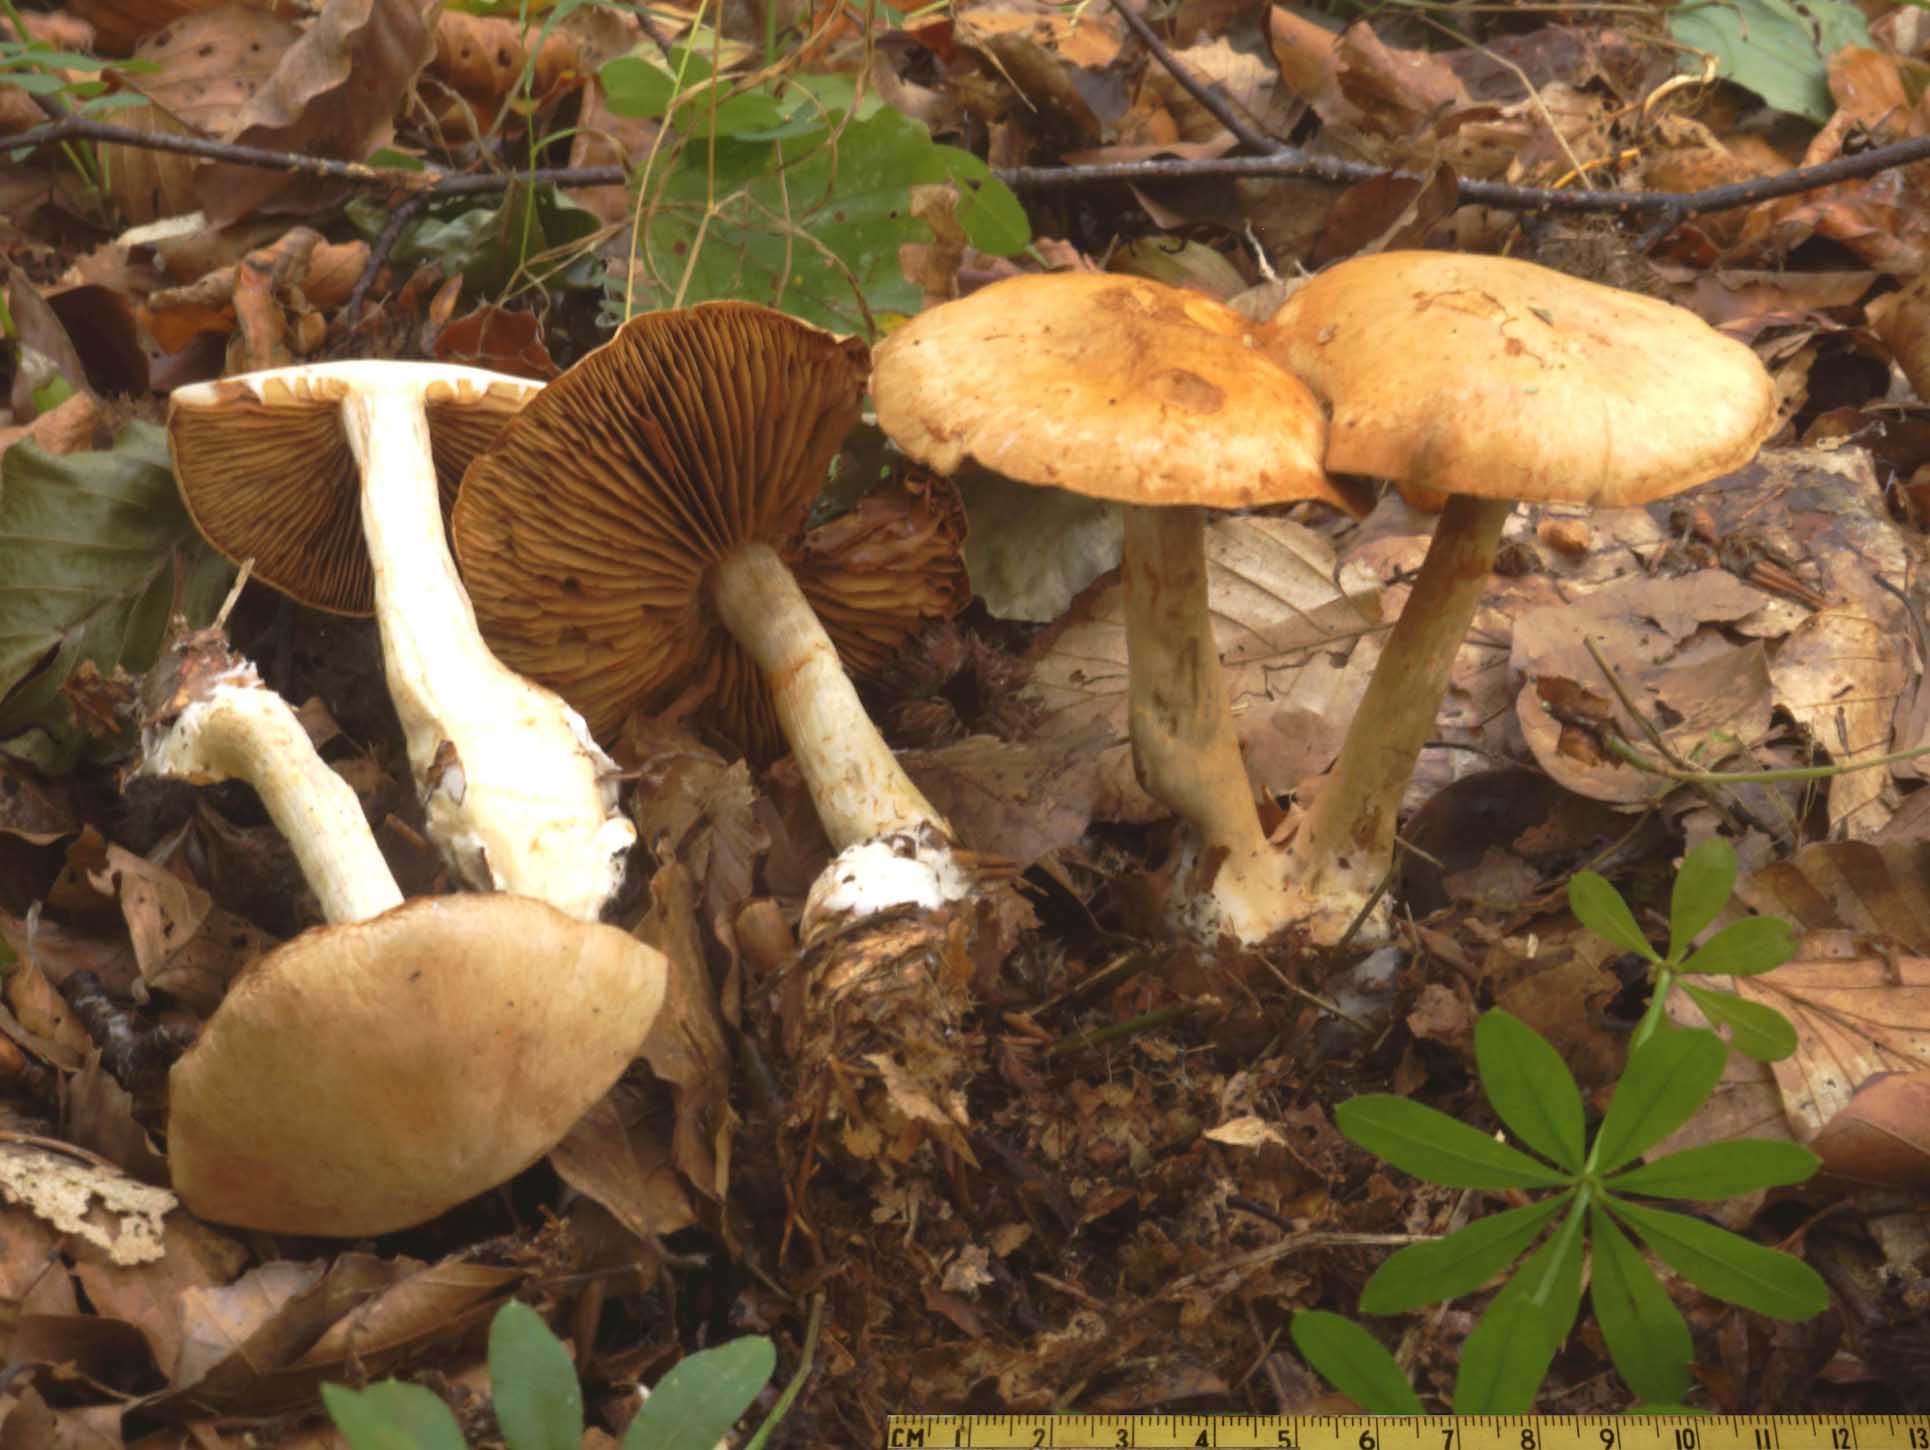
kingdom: Fungi
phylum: Basidiomycota
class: Agaricomycetes
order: Agaricales
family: Cortinariaceae
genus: Cortinarius
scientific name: Cortinarius
